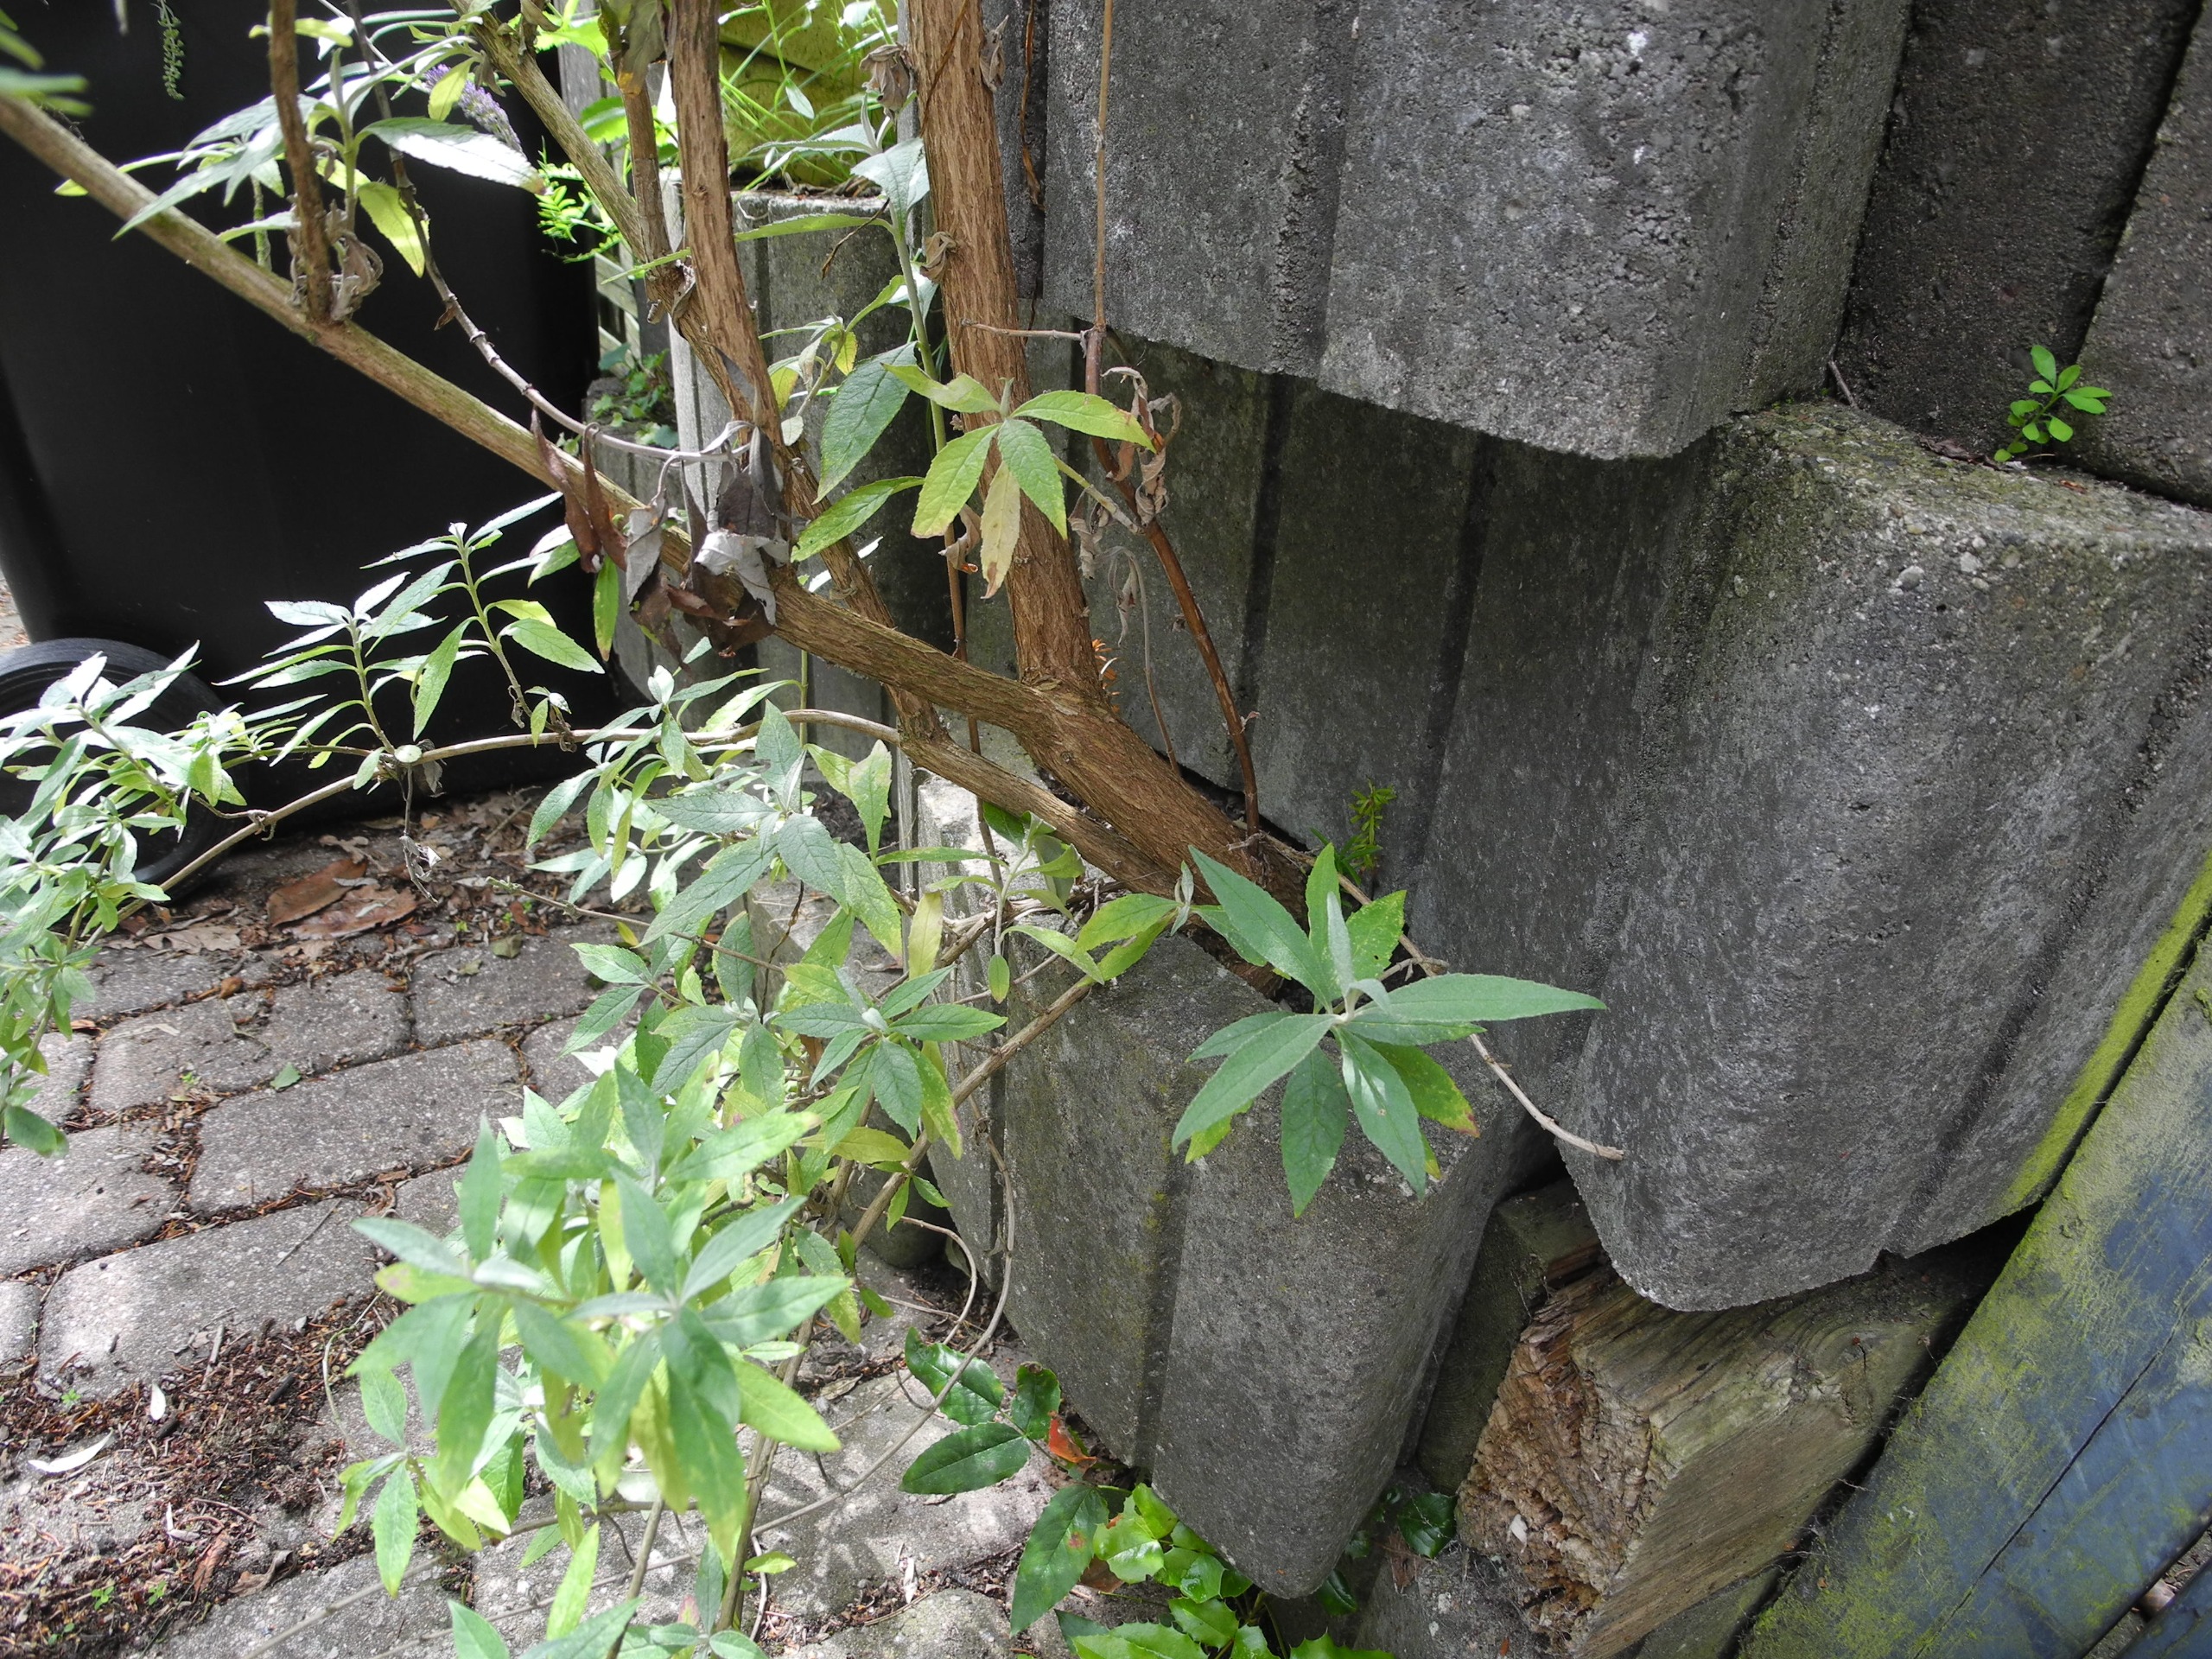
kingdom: Plantae
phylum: Tracheophyta
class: Magnoliopsida
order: Lamiales
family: Scrophulariaceae
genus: Buddleja
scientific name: Buddleja davidii
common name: Sommerfuglebusk
